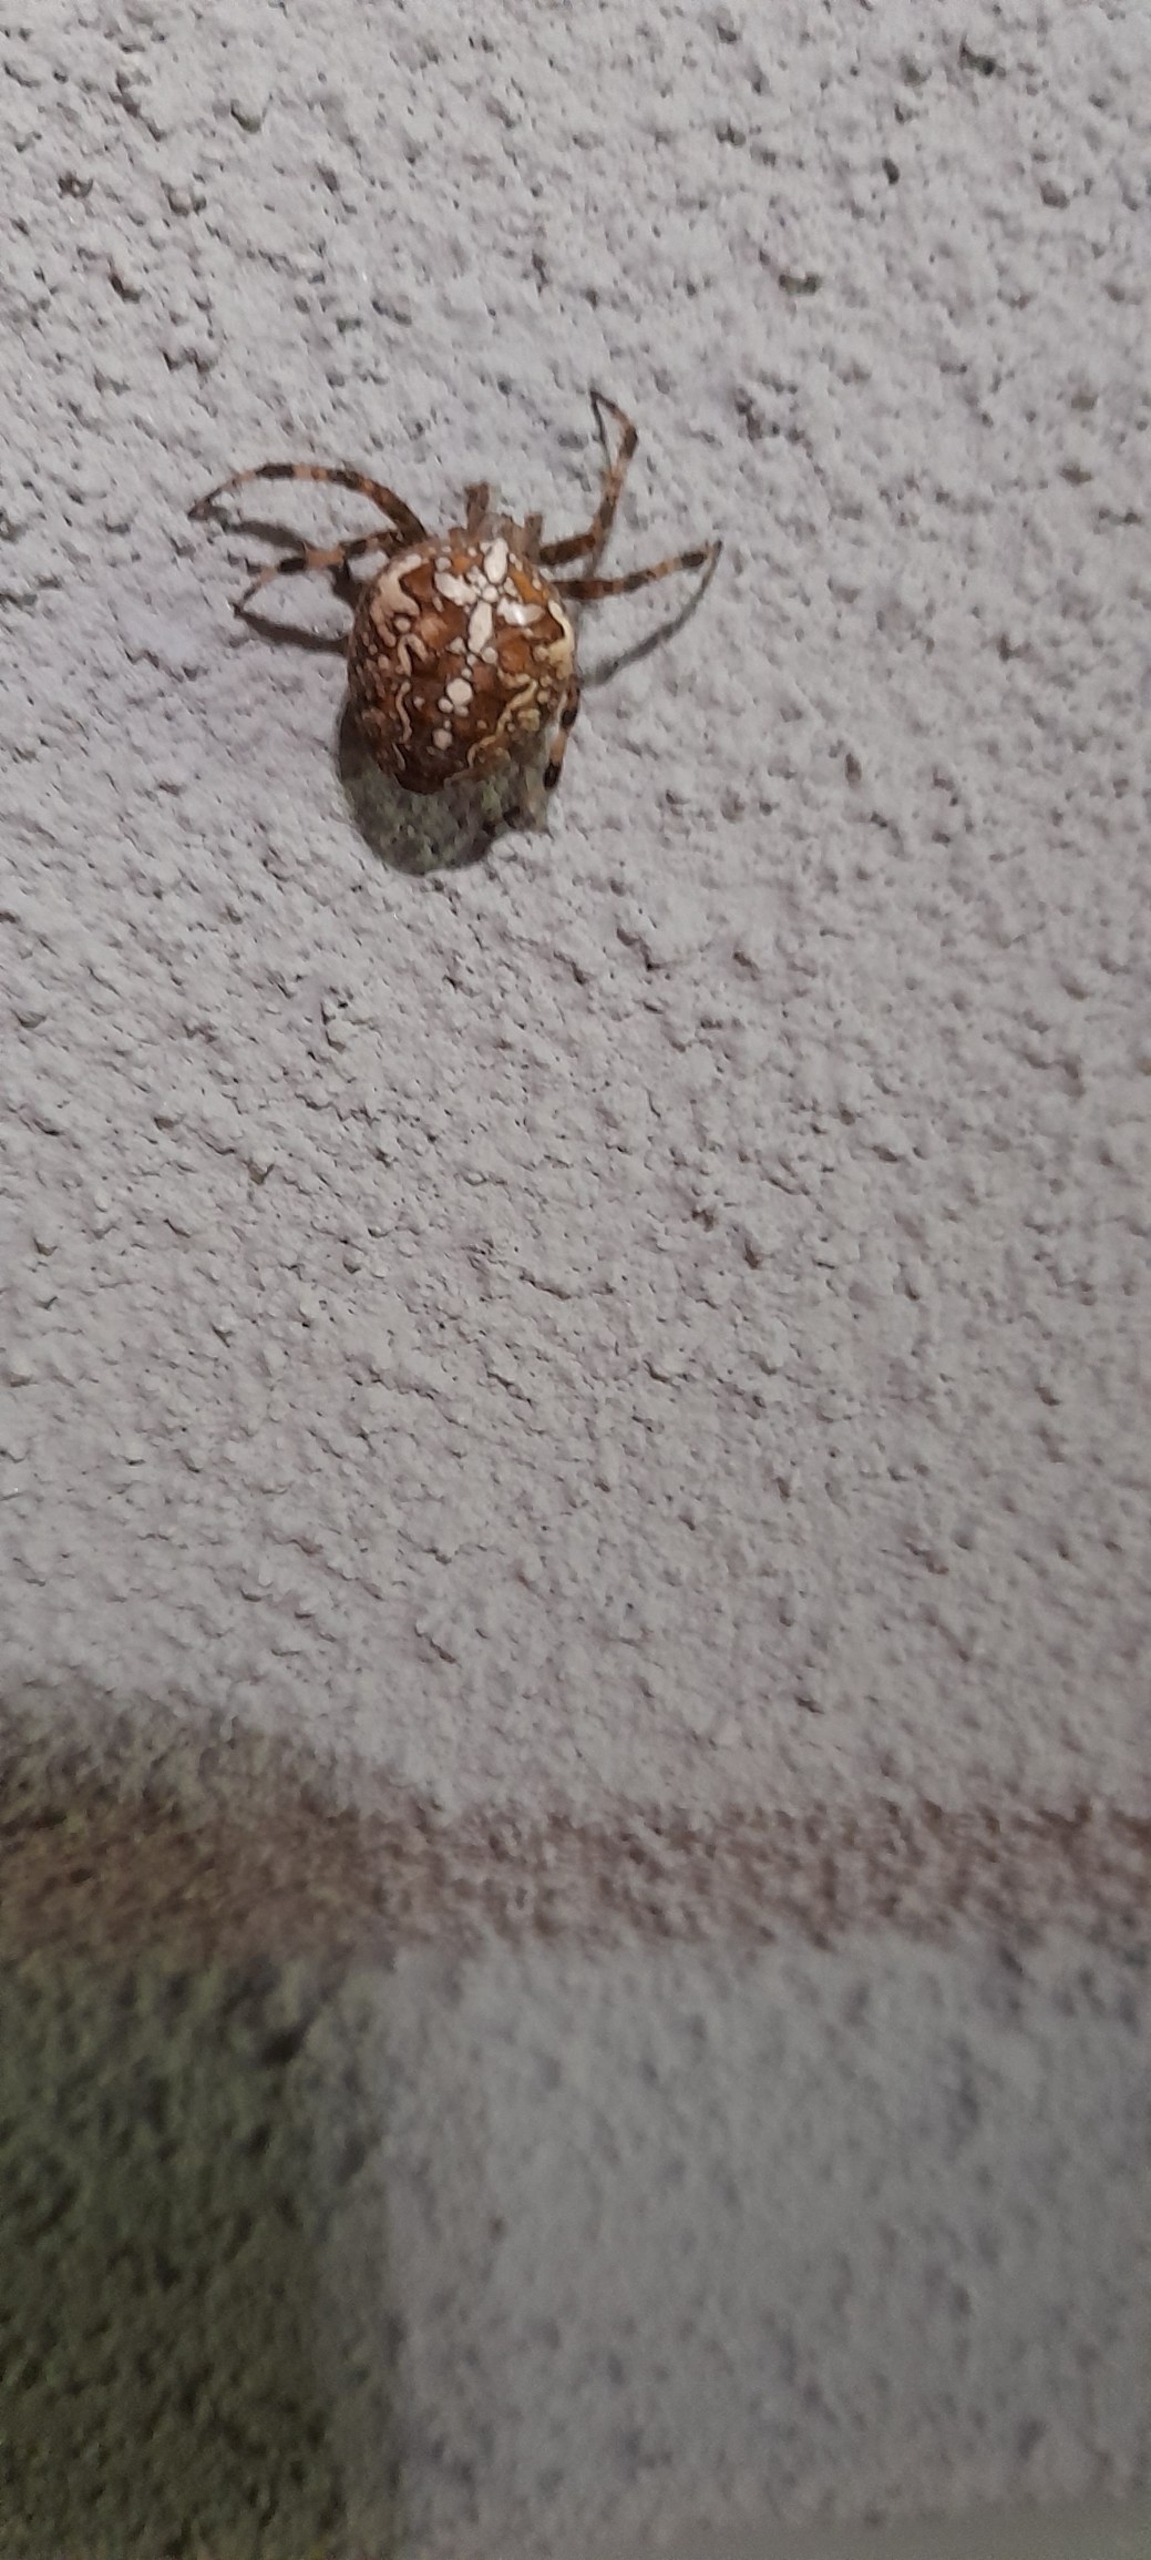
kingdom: Animalia
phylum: Arthropoda
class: Arachnida
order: Araneae
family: Araneidae
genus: Araneus
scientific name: Araneus diadematus
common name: Korsedderkop
